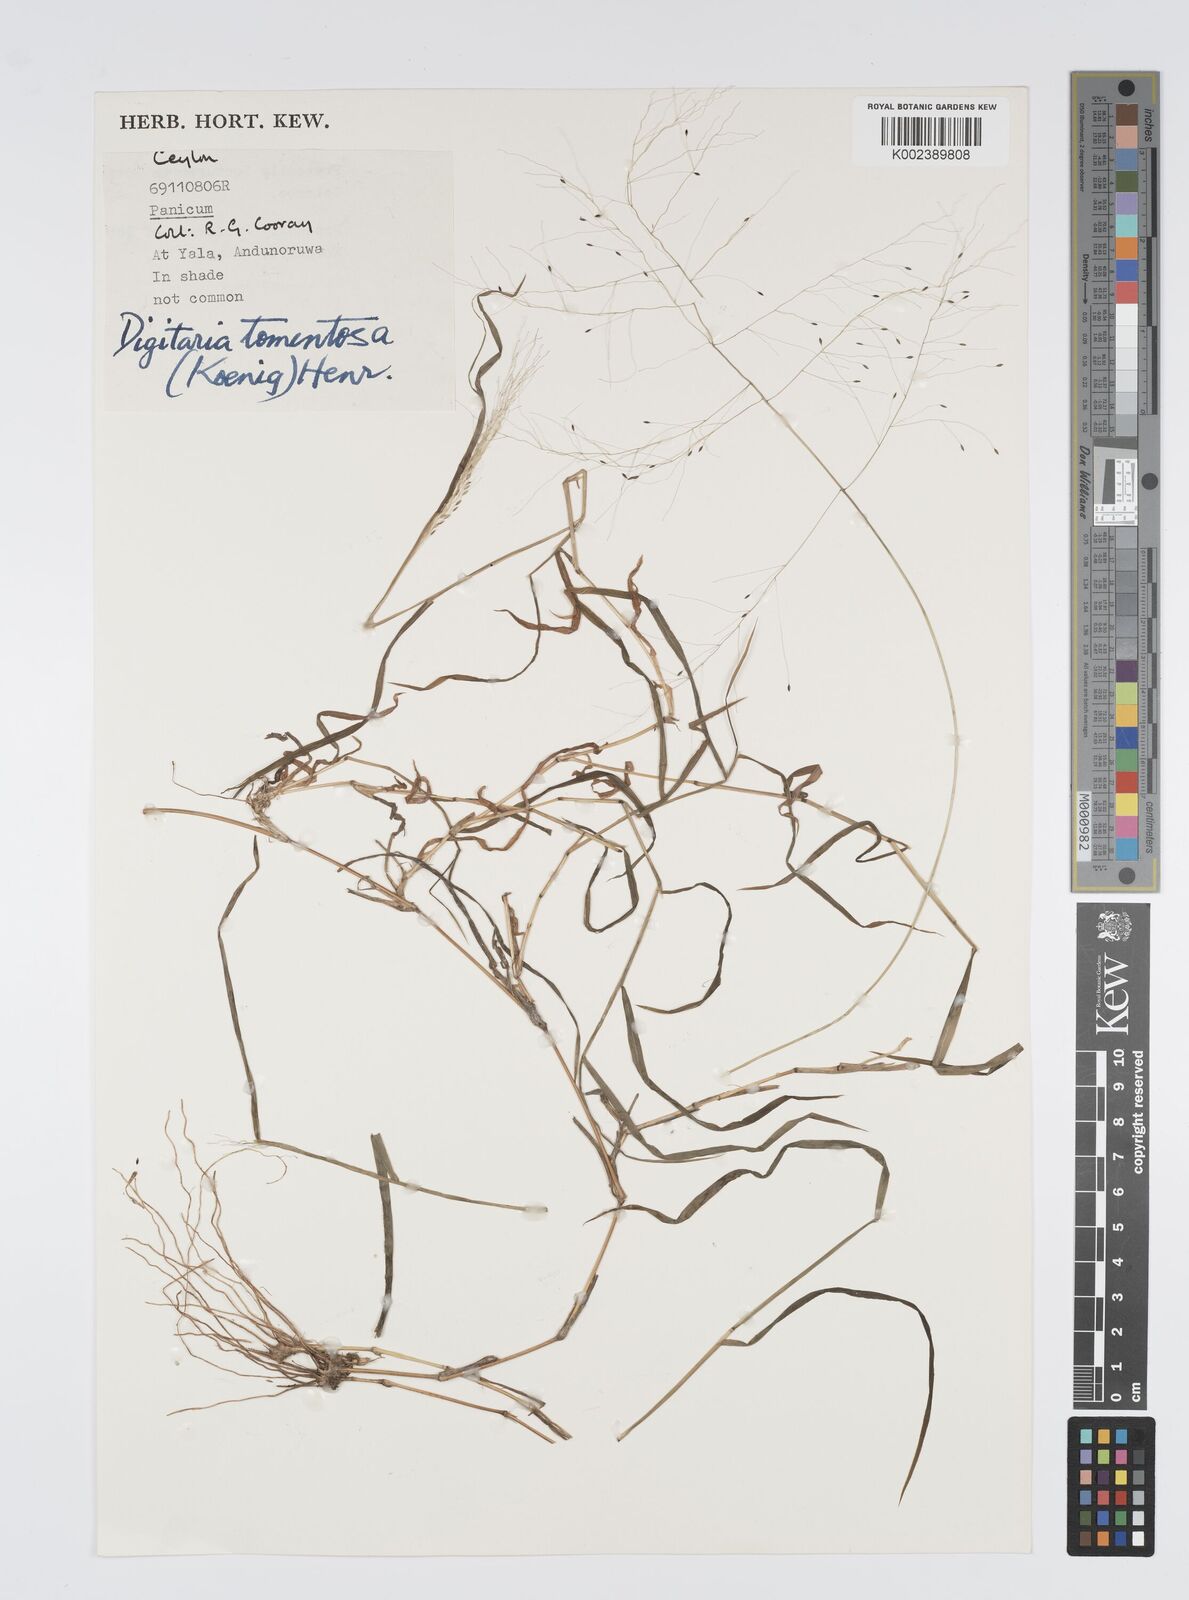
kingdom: Plantae
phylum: Tracheophyta
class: Liliopsida
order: Poales
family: Poaceae
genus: Digitaria
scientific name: Digitaria tomentosa
